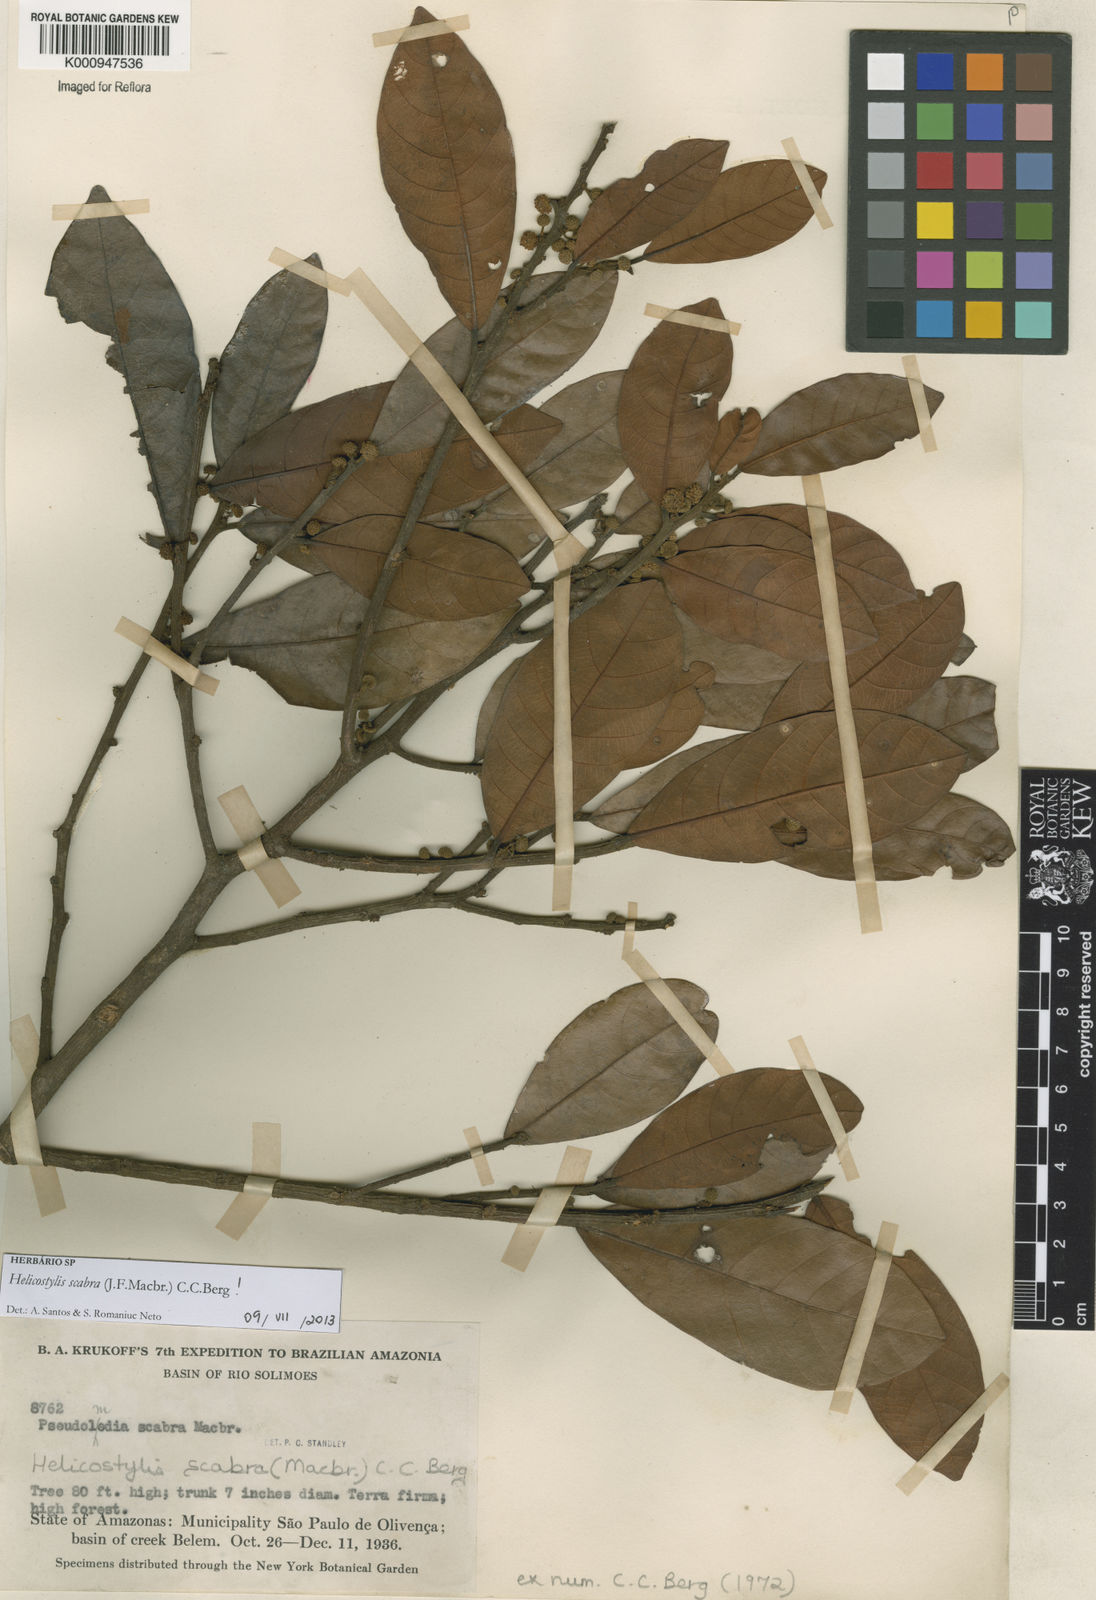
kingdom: Plantae
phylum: Tracheophyta
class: Magnoliopsida
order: Rosales
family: Moraceae
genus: Helicostylis
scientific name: Helicostylis scabra
